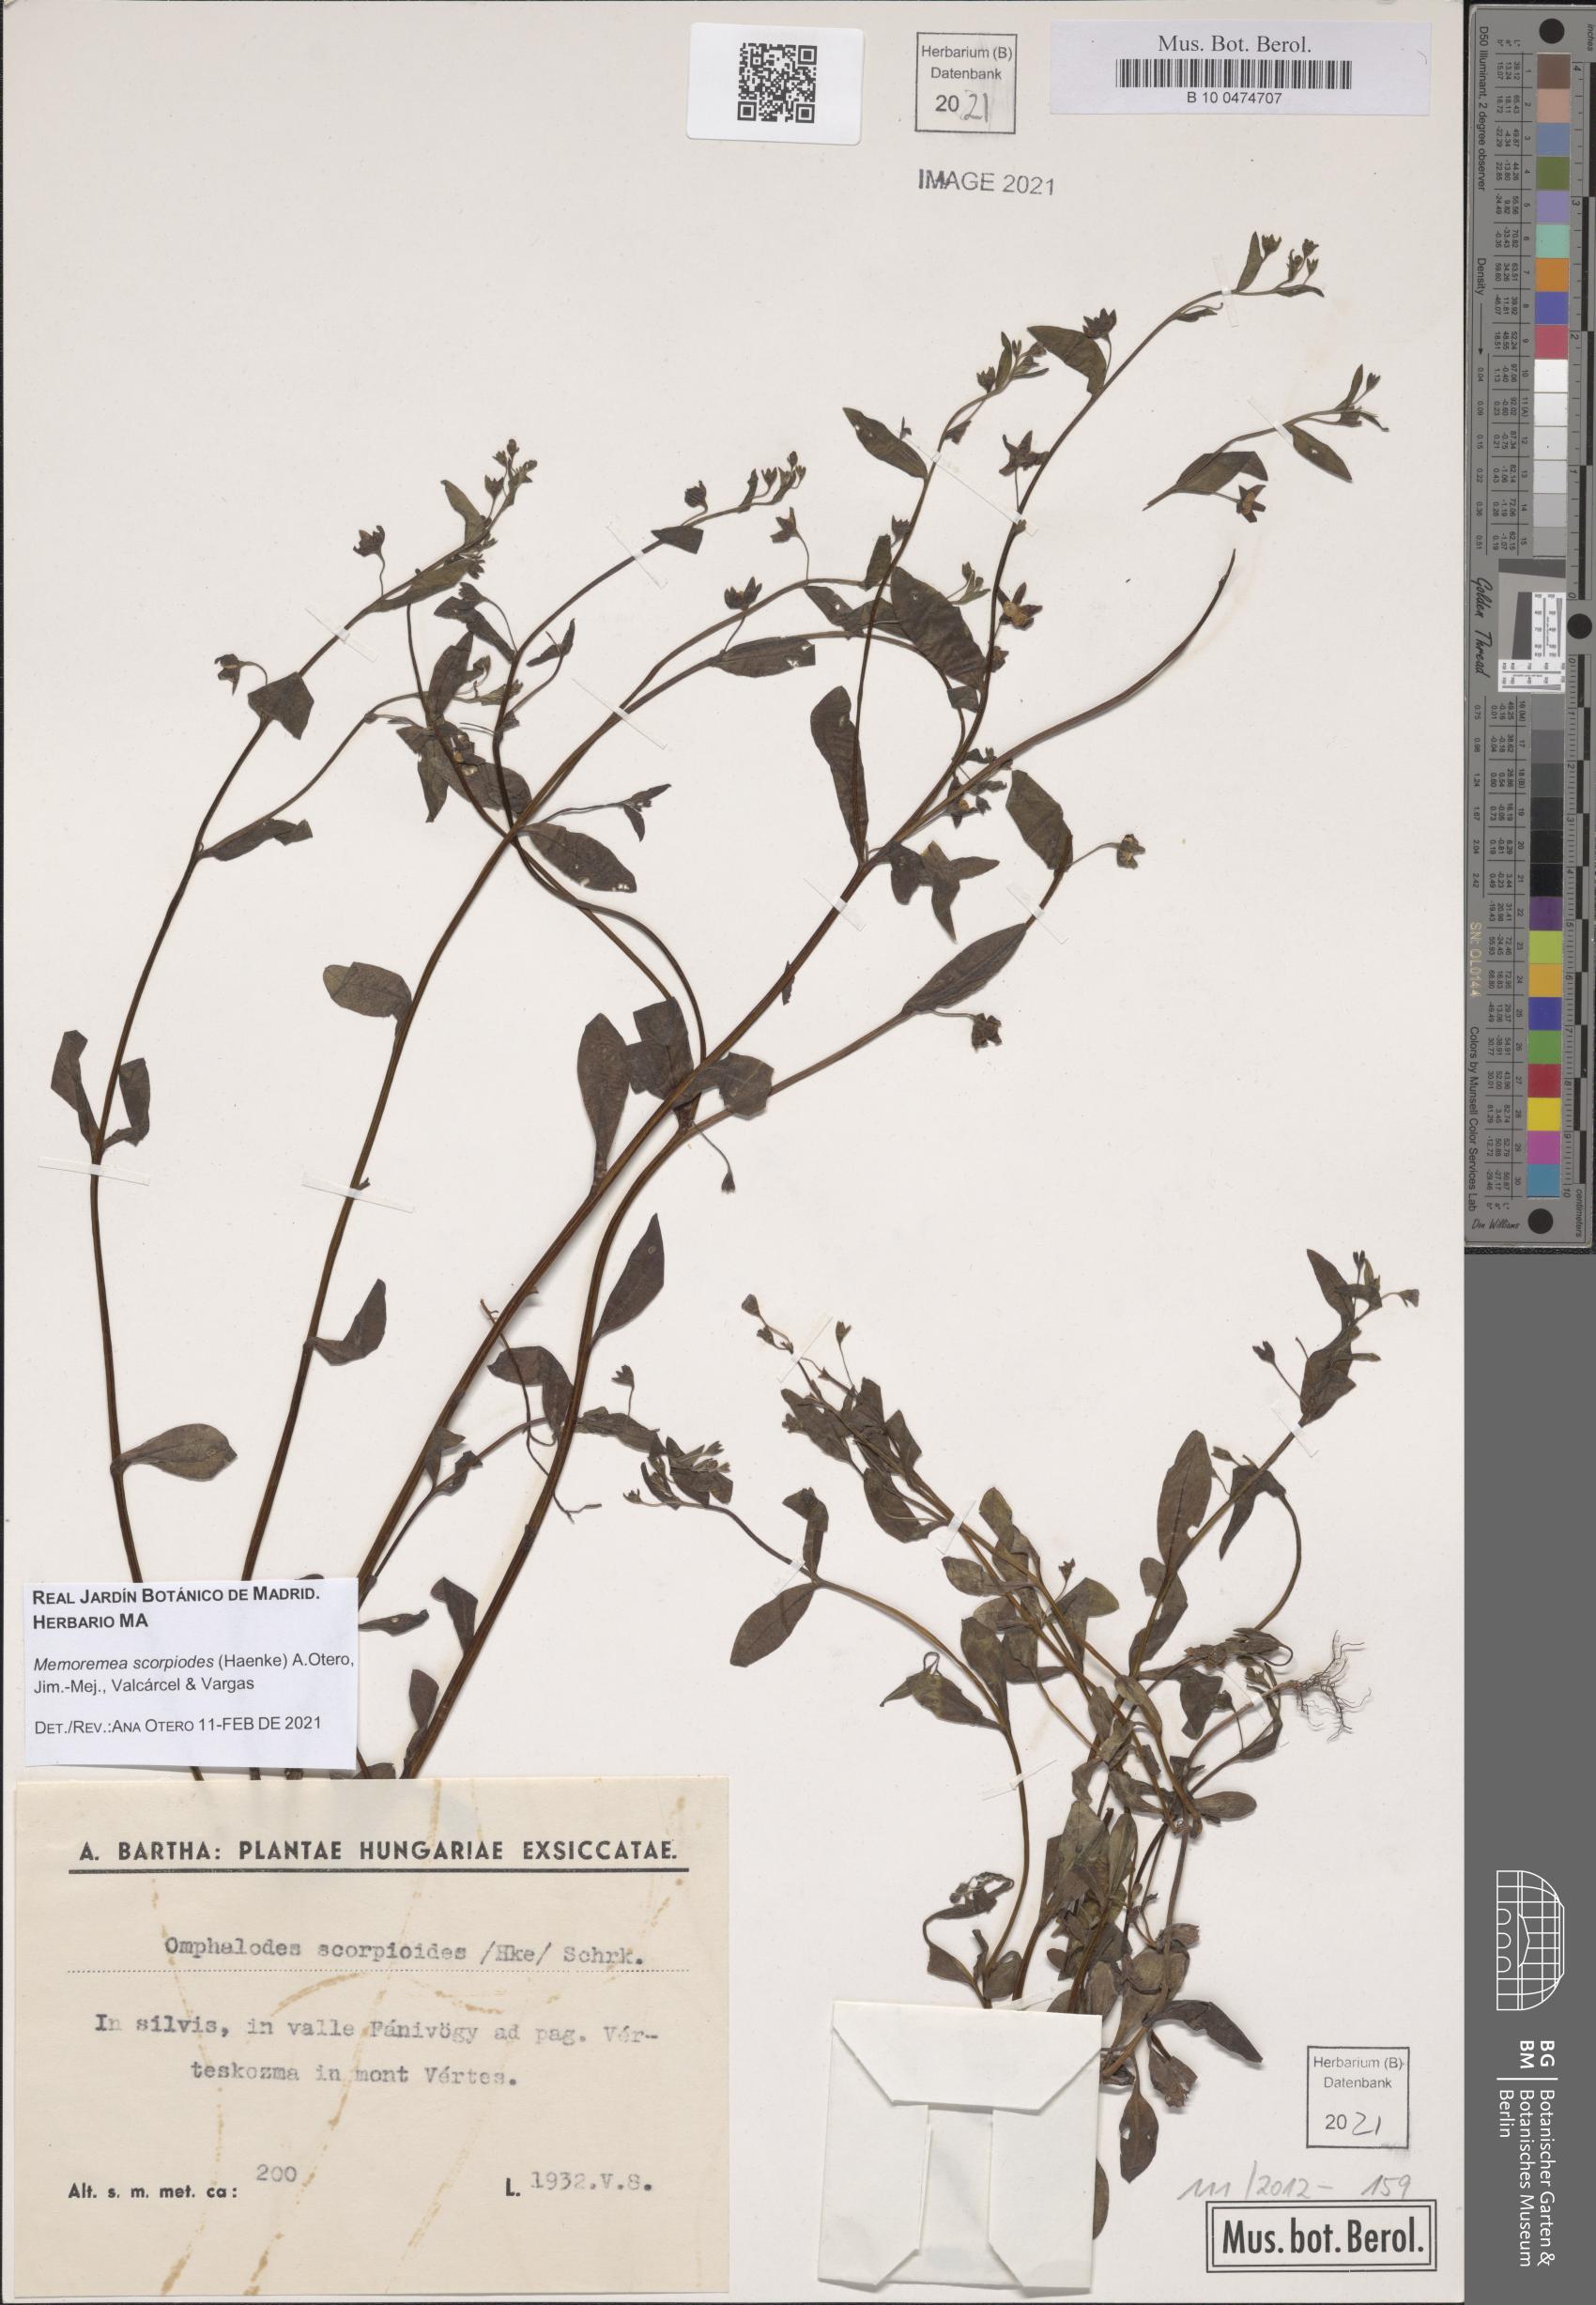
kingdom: Plantae
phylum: Tracheophyta
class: Magnoliopsida
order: Boraginales
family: Boraginaceae
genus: Memoremea
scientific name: Memoremea scorpioides
